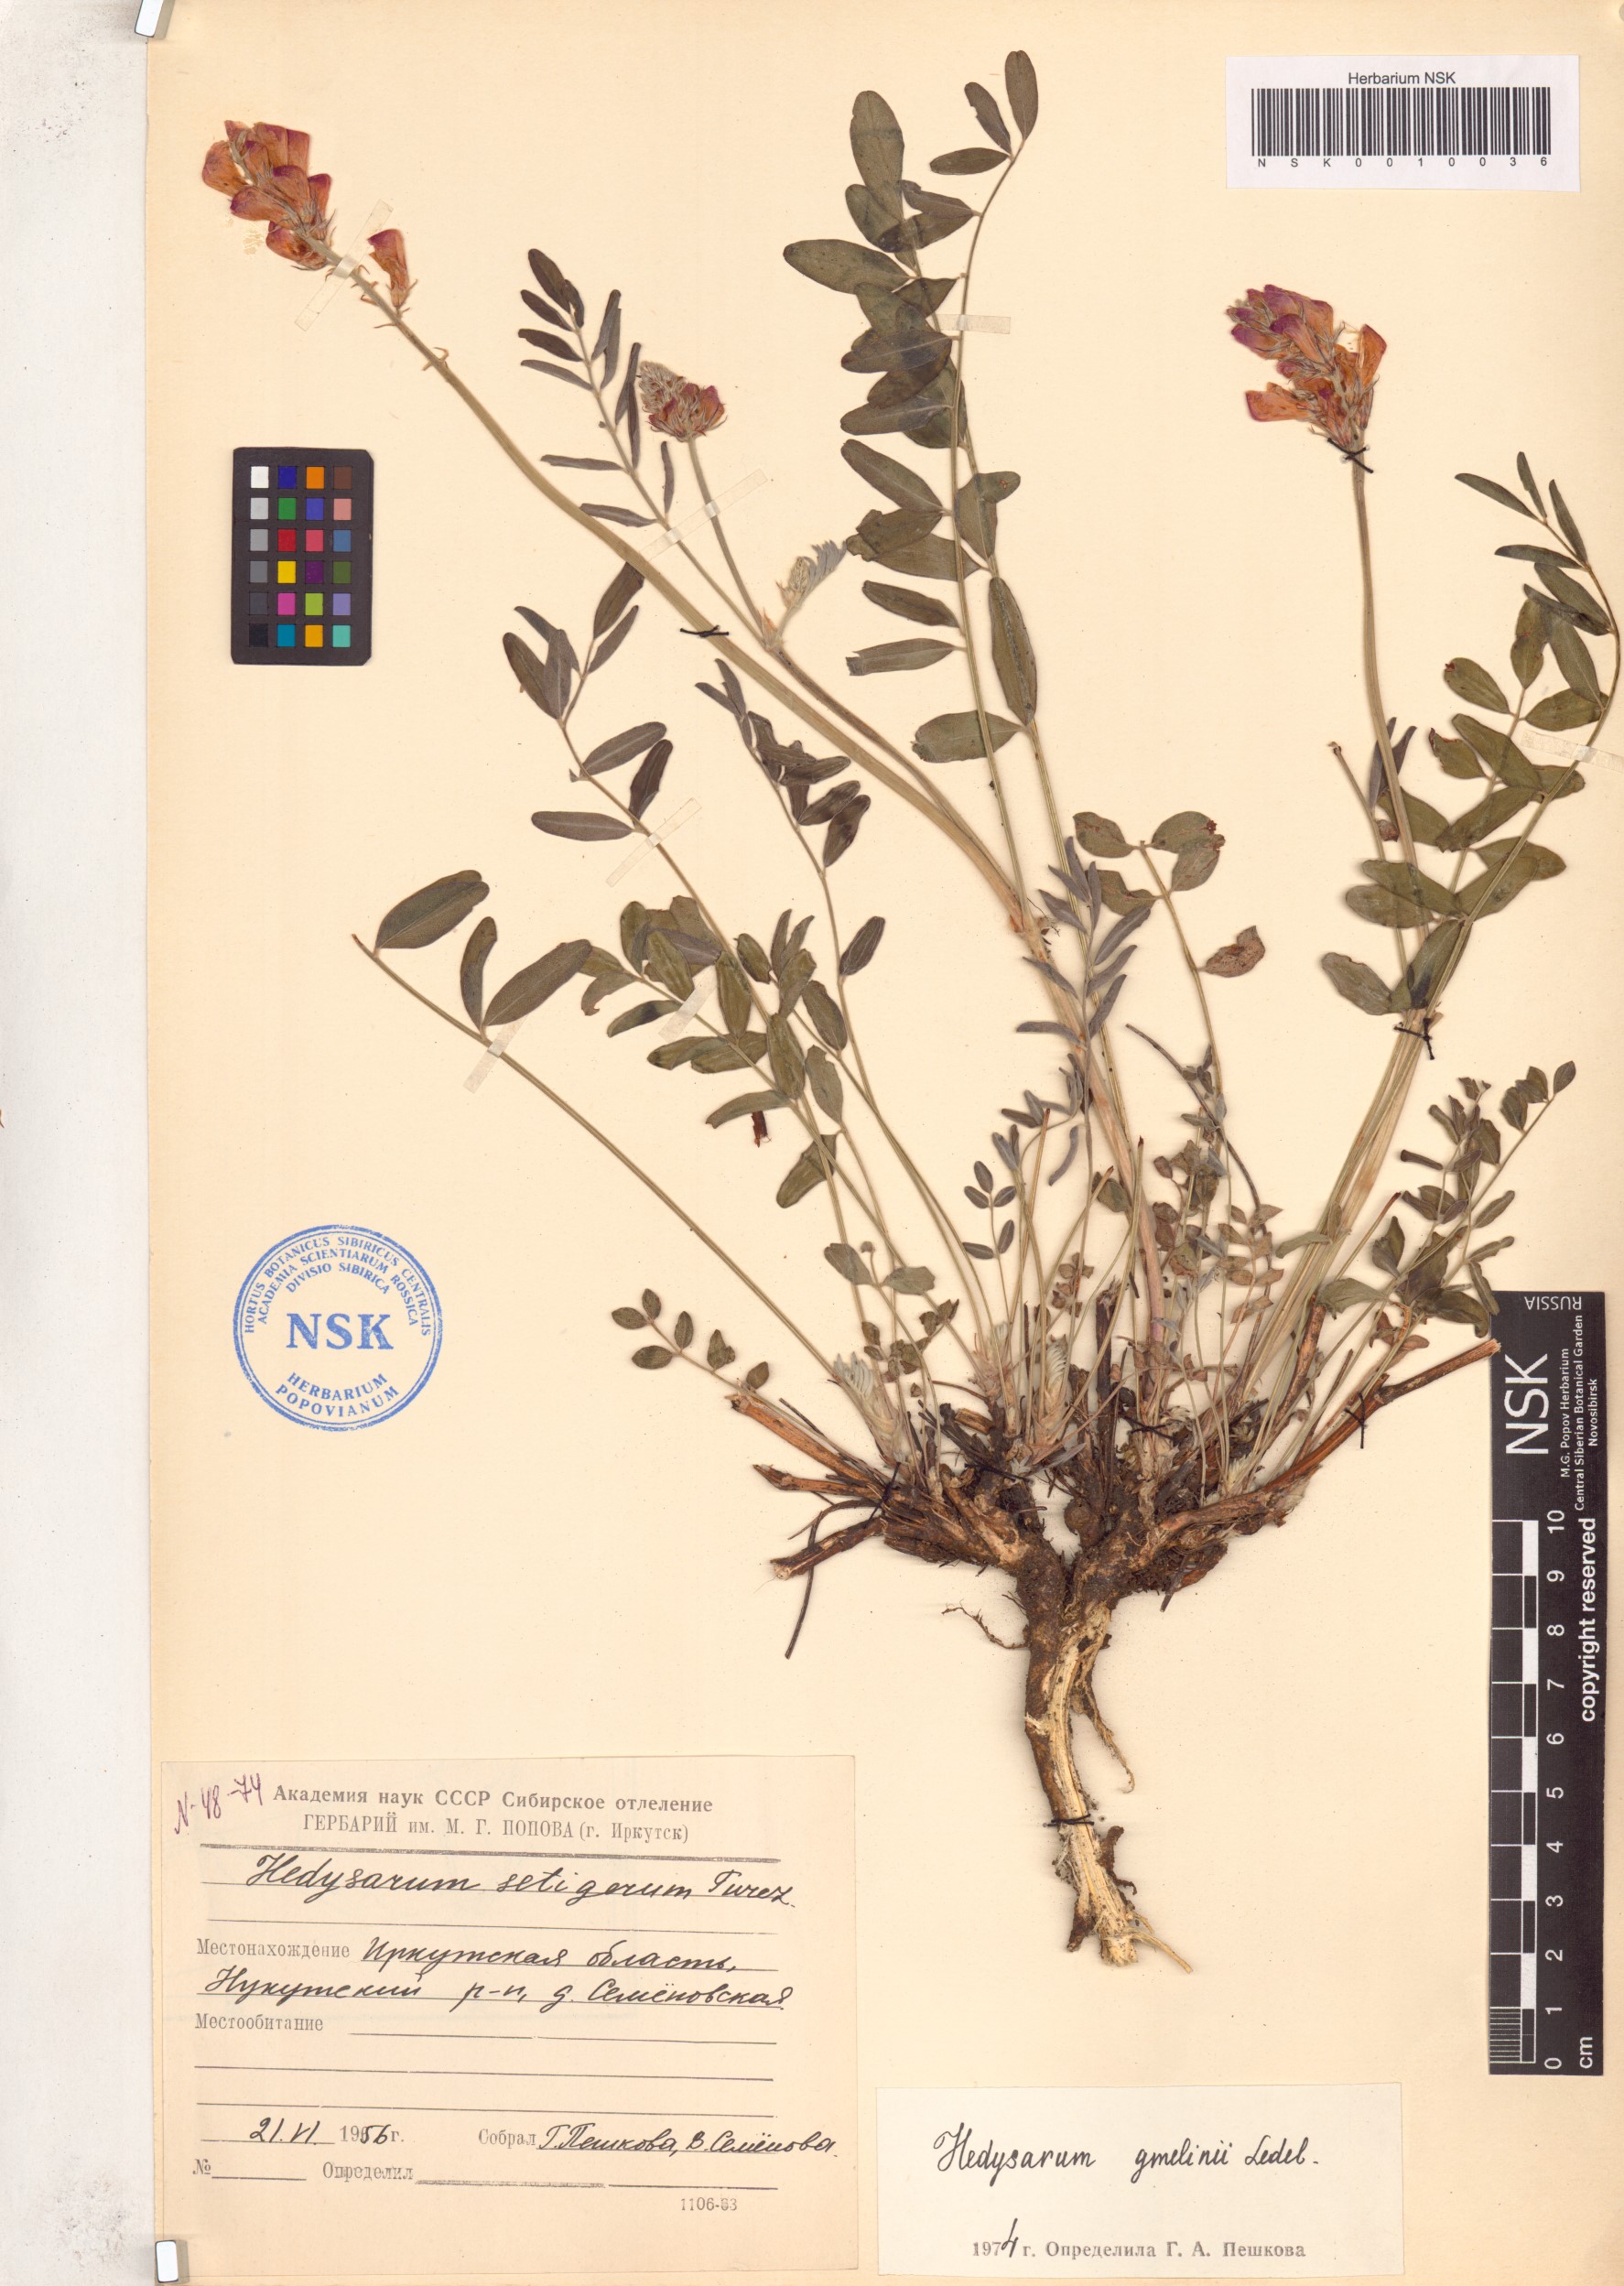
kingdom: Plantae
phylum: Tracheophyta
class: Magnoliopsida
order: Fabales
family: Fabaceae
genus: Hedysarum
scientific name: Hedysarum gmelinii
